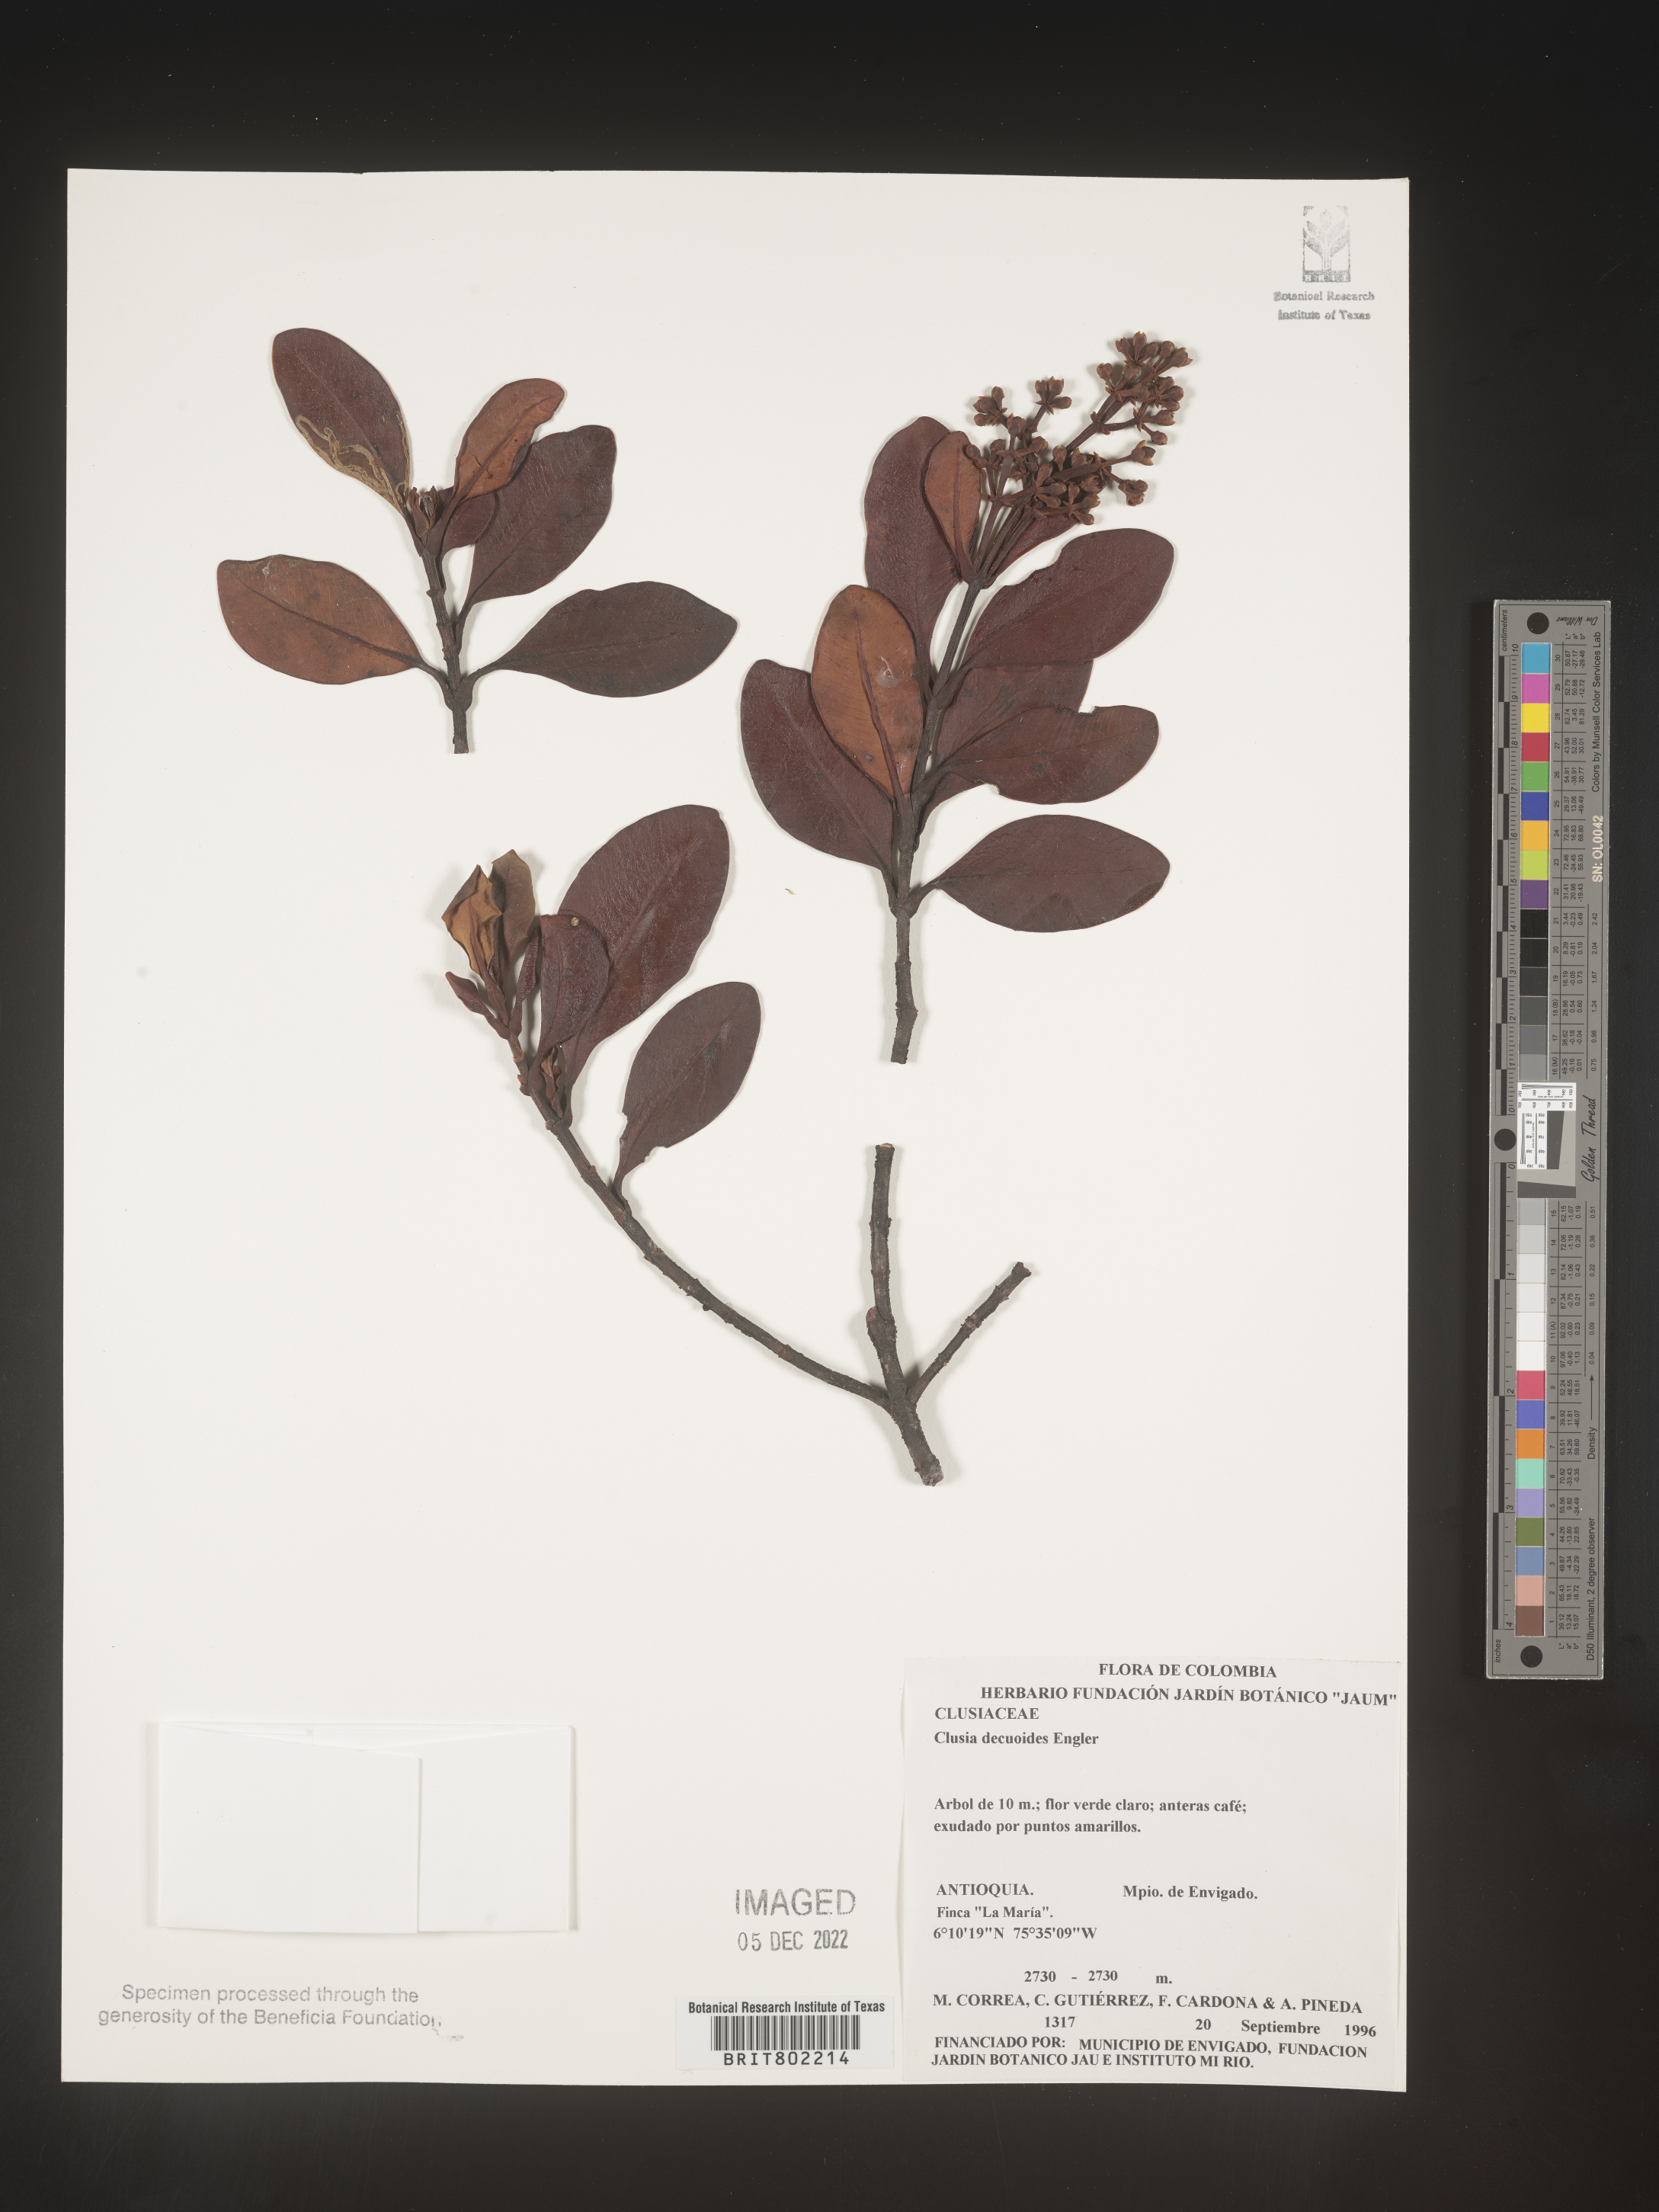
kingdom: Plantae
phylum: Tracheophyta
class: Magnoliopsida
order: Malpighiales
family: Clusiaceae
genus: Clusia
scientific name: Clusia ducuoides
